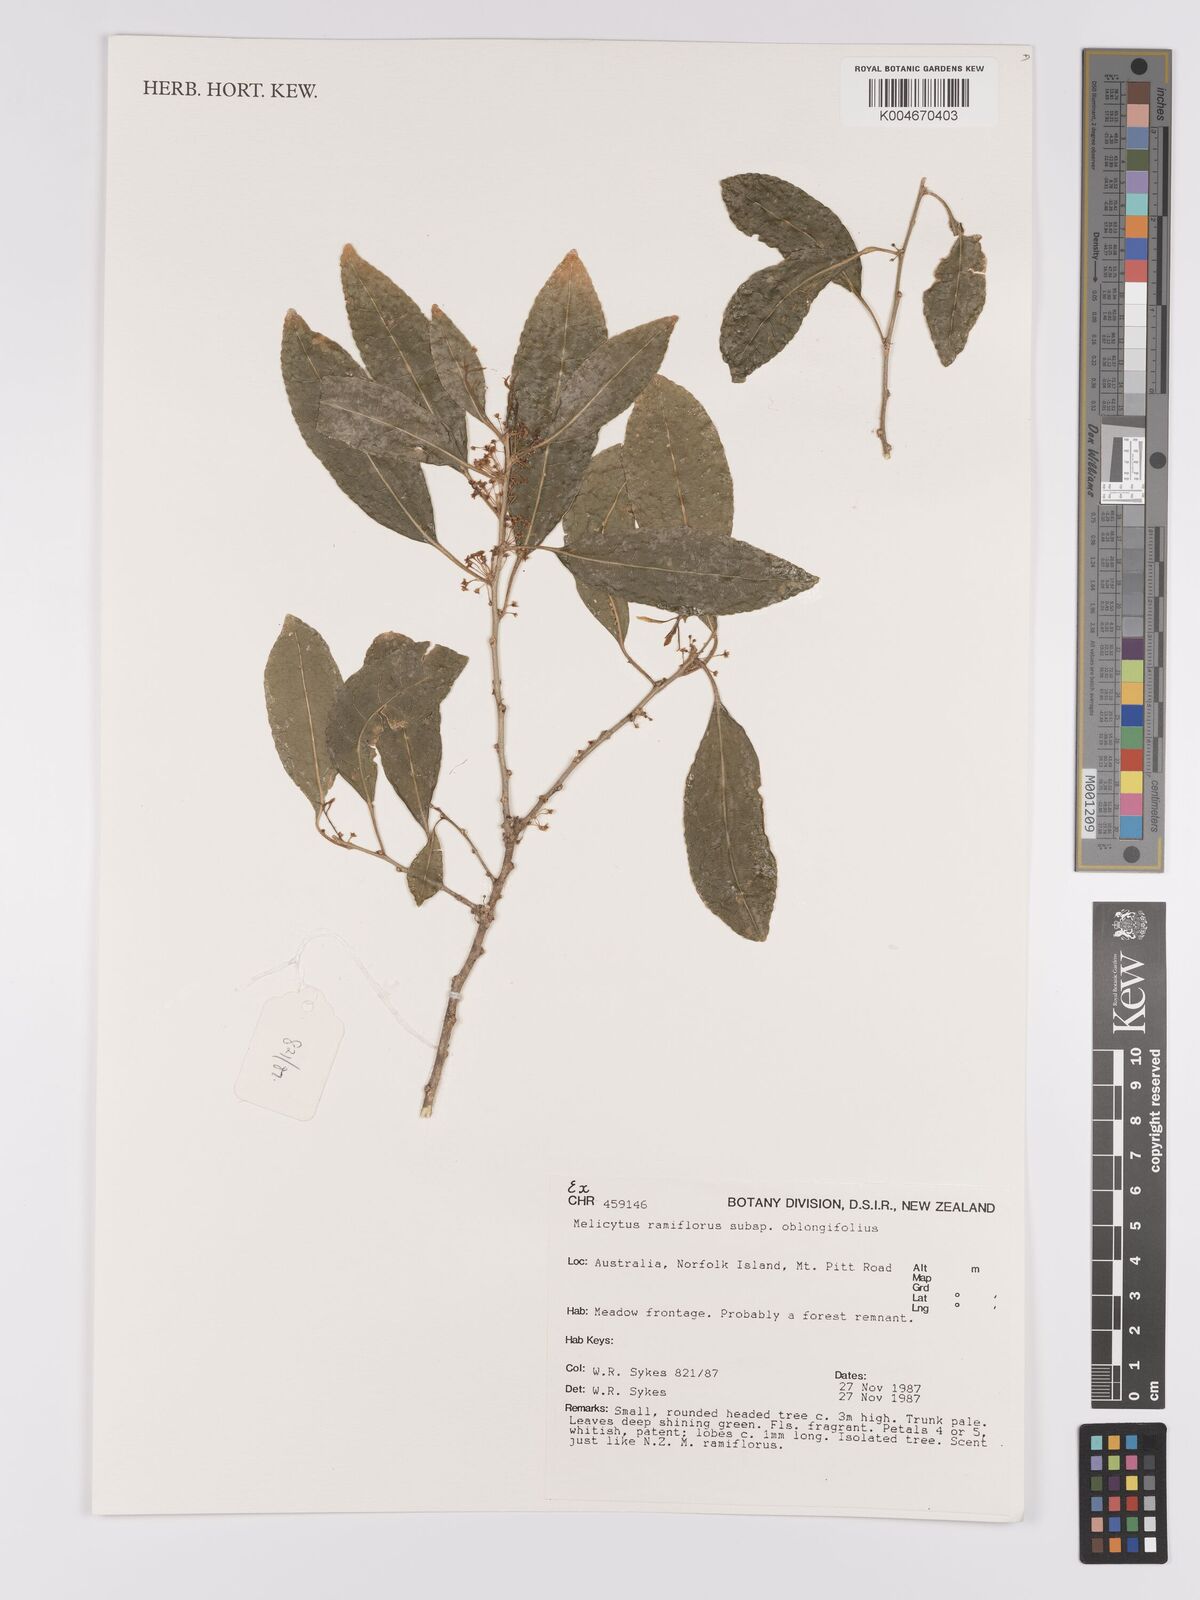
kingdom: Plantae
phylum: Tracheophyta
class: Magnoliopsida
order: Malpighiales
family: Violaceae
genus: Melicytus
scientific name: Melicytus ramiflorus
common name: Mahoe
